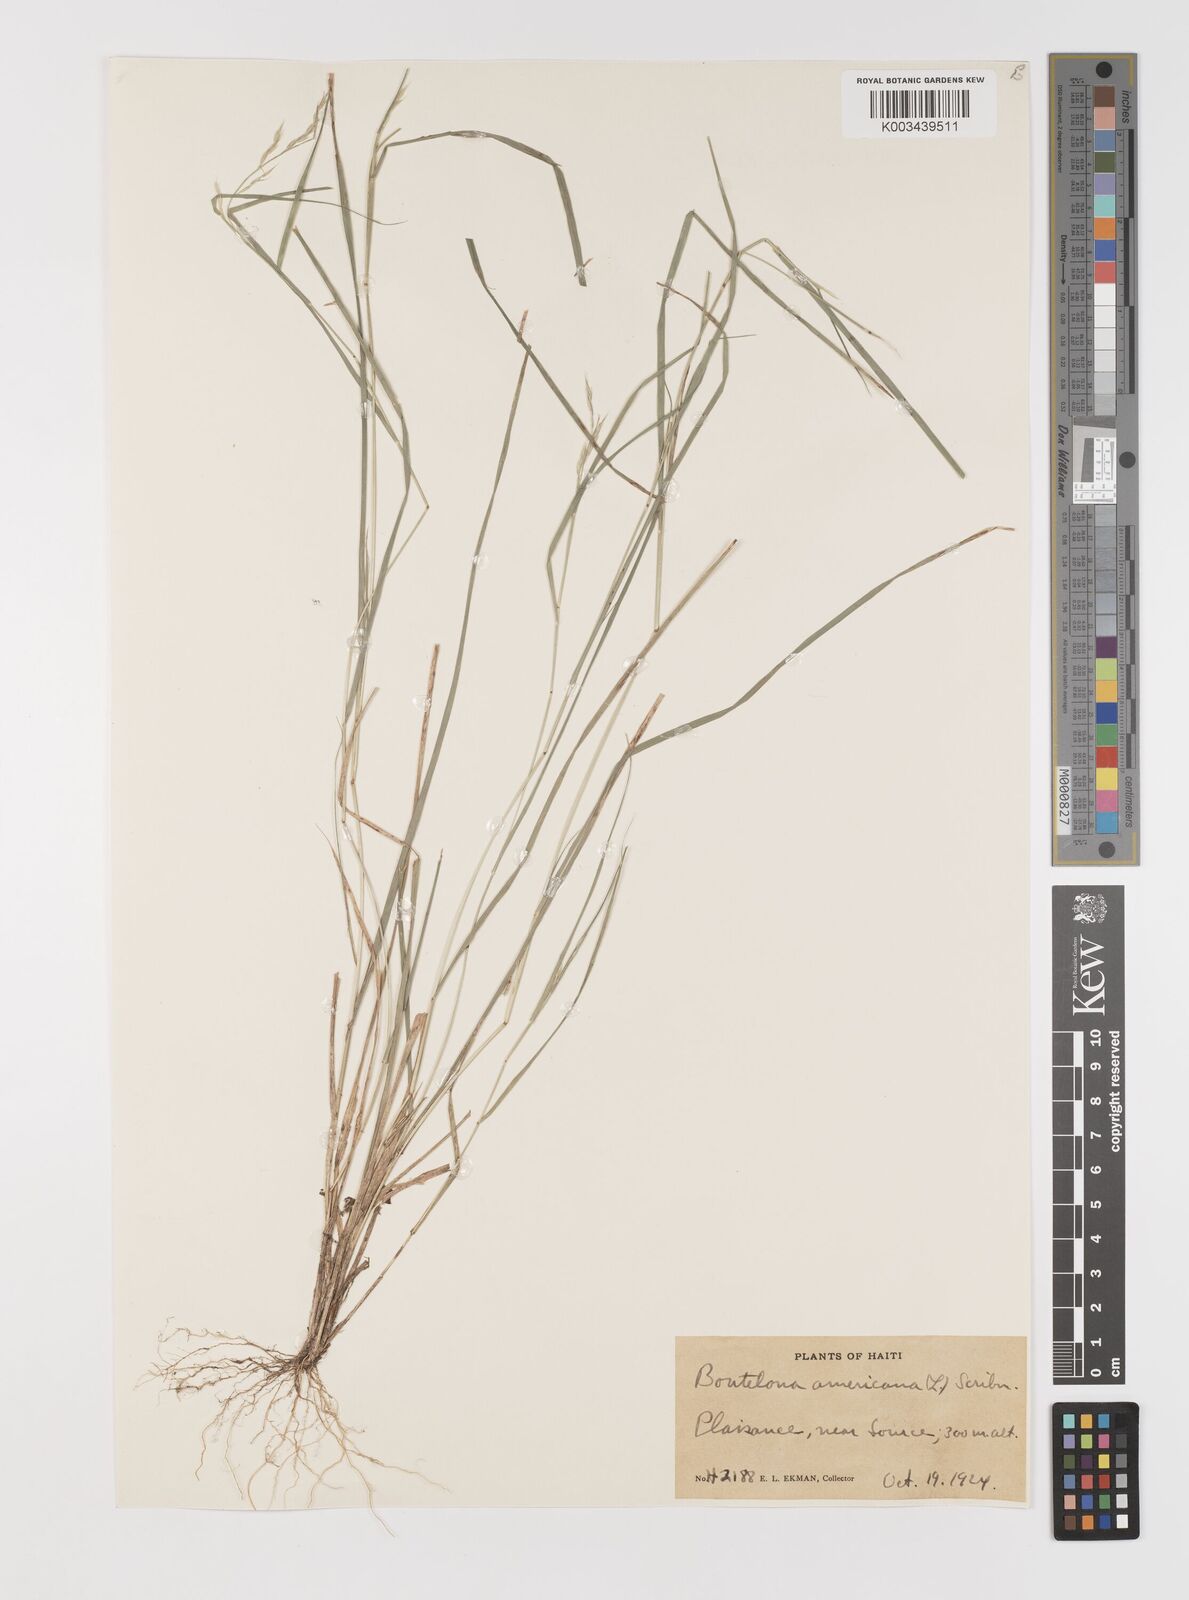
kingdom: Plantae
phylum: Tracheophyta
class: Liliopsida
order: Poales
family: Poaceae
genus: Bouteloua
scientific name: Bouteloua americana
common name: Mule grass
